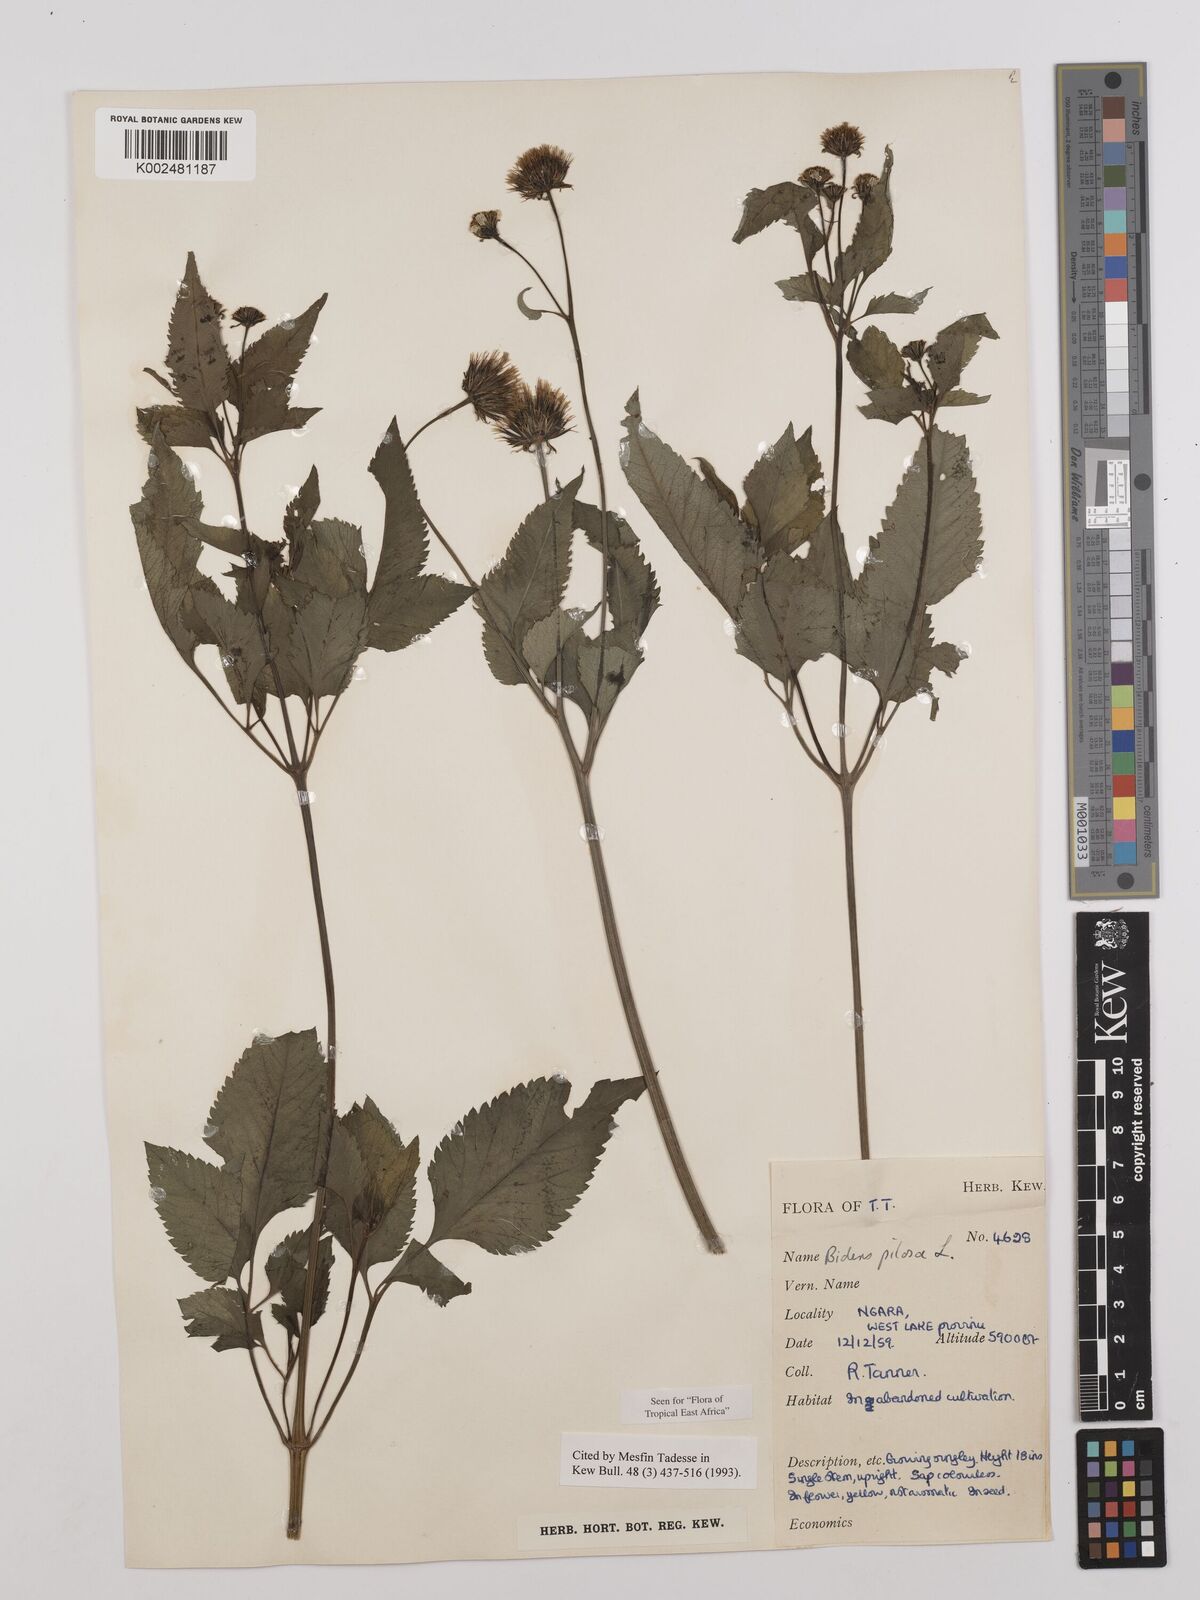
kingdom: Plantae
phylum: Tracheophyta
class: Magnoliopsida
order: Asterales
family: Asteraceae
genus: Bidens
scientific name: Bidens pilosa
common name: Black-jack
